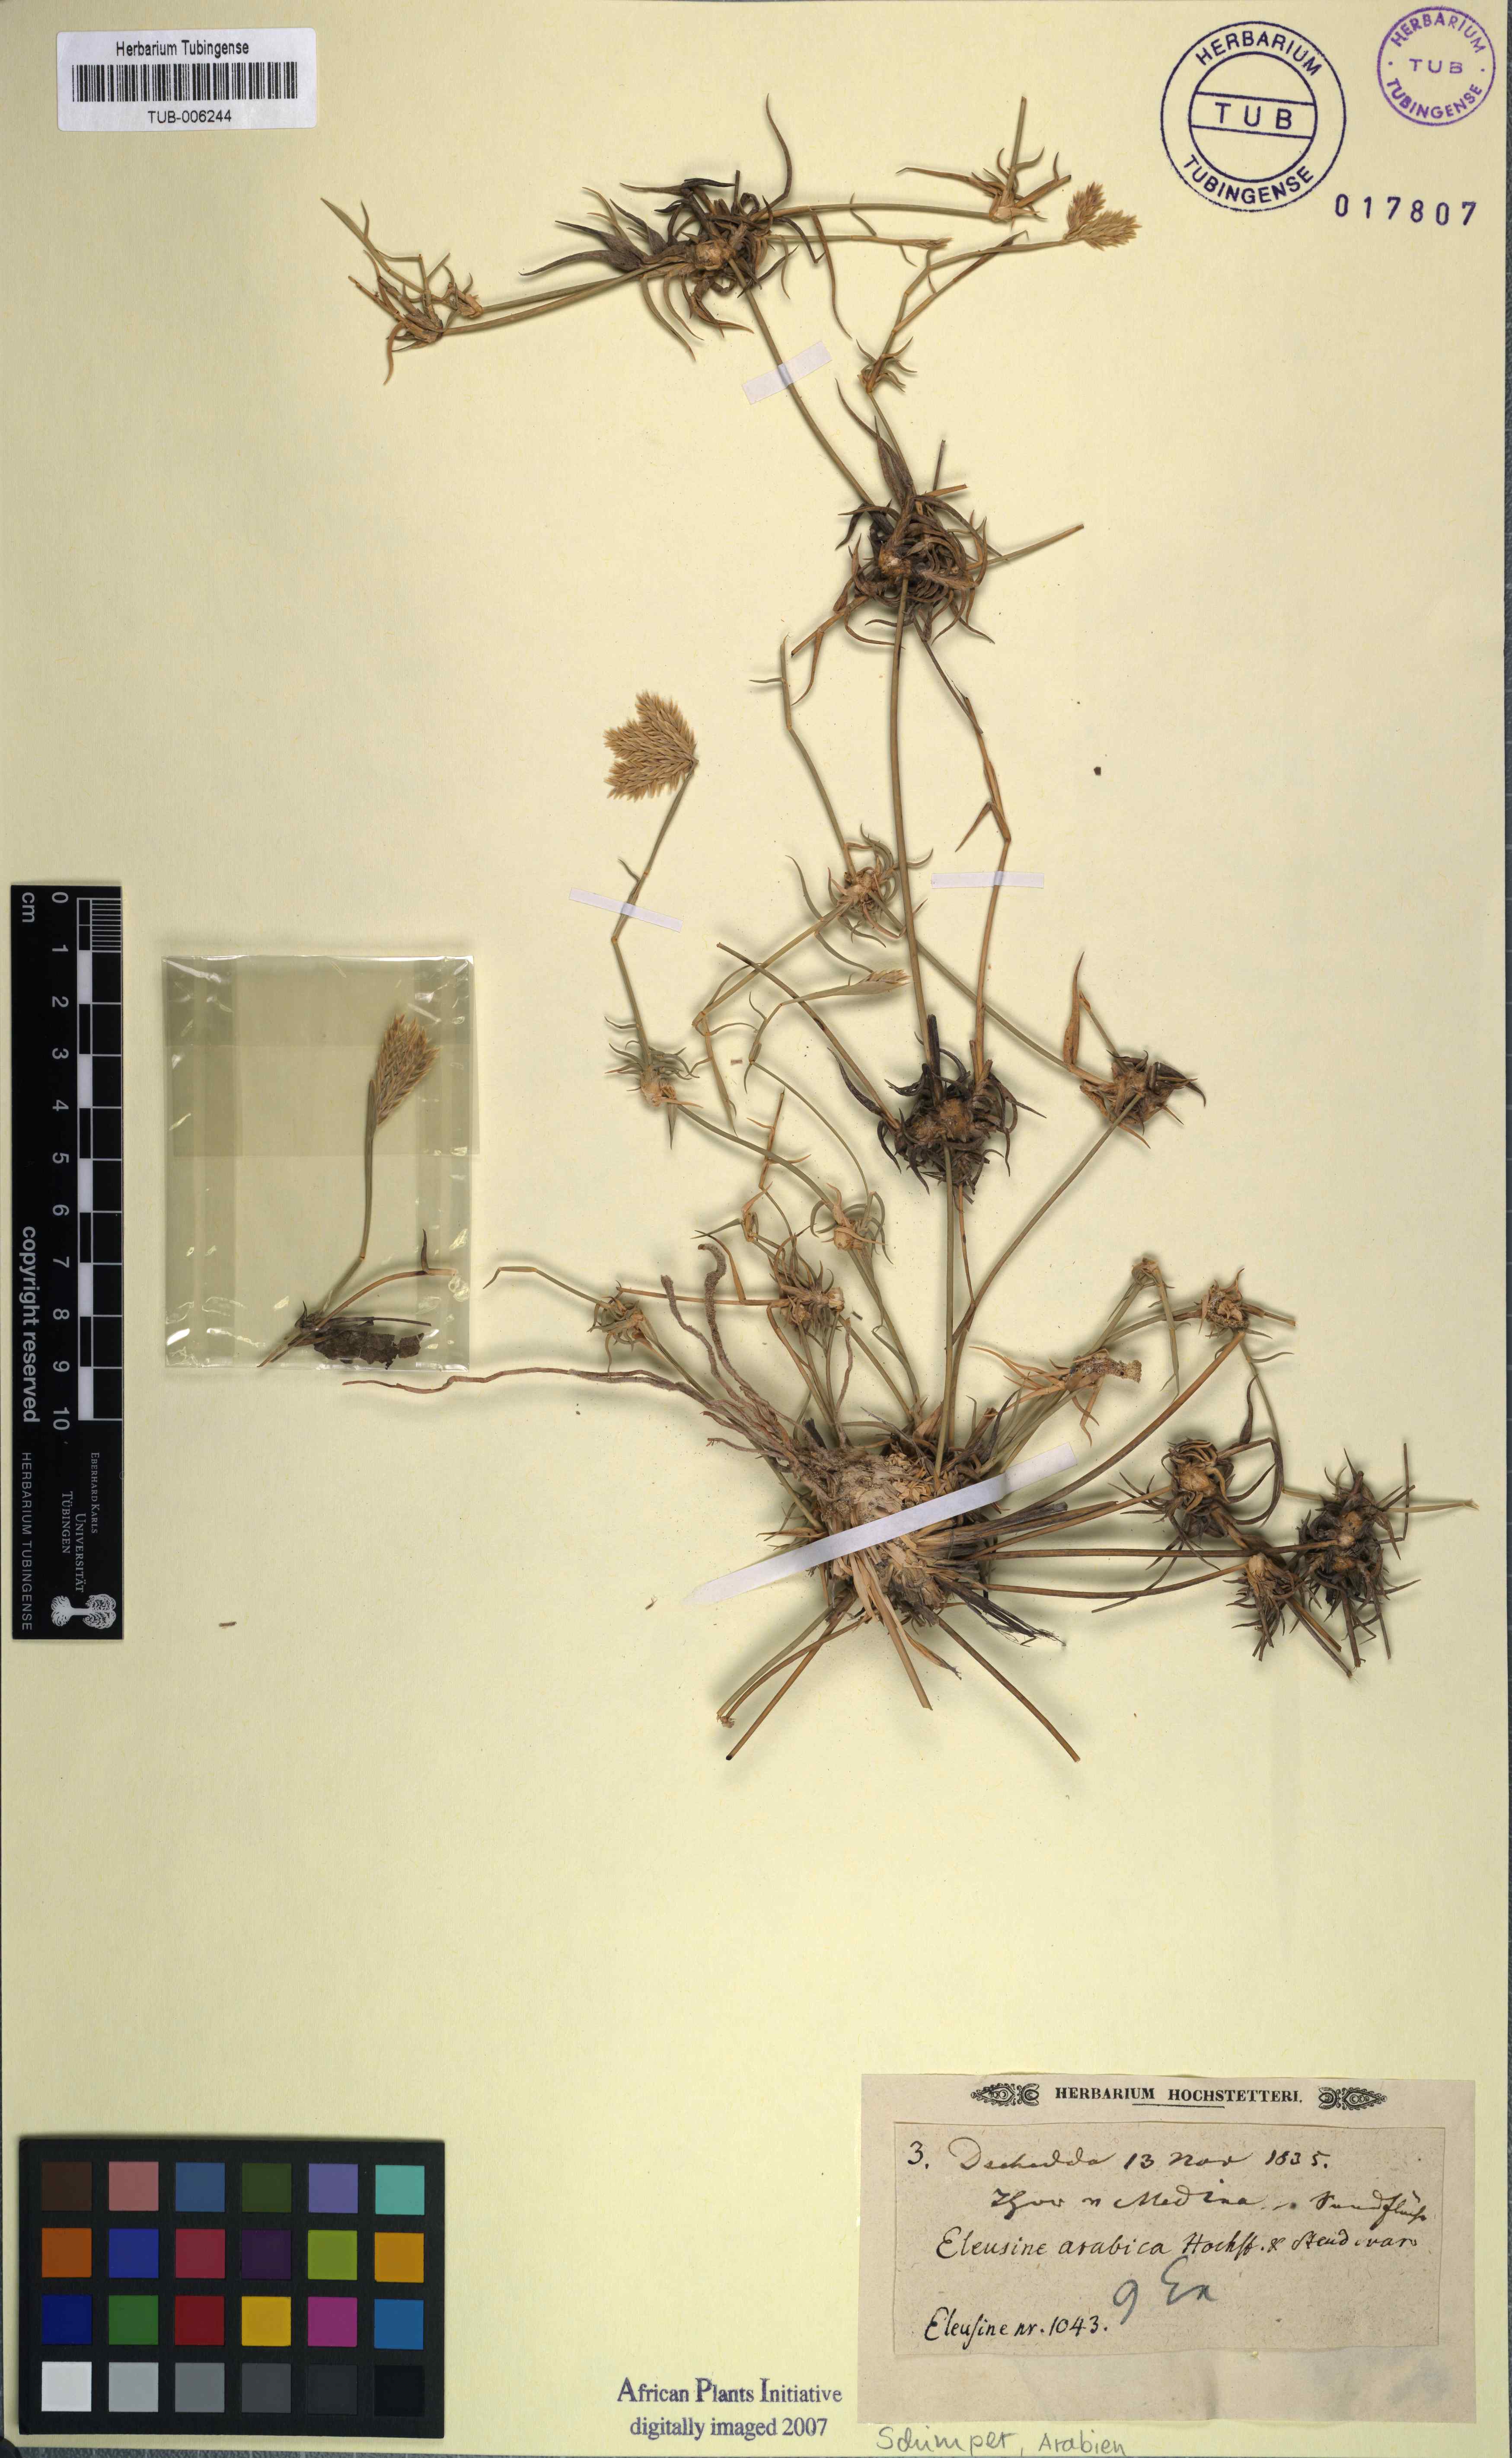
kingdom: Plantae
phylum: Tracheophyta
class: Liliopsida
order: Poales
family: Poaceae
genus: Chloris
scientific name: Chloris flagellifera
